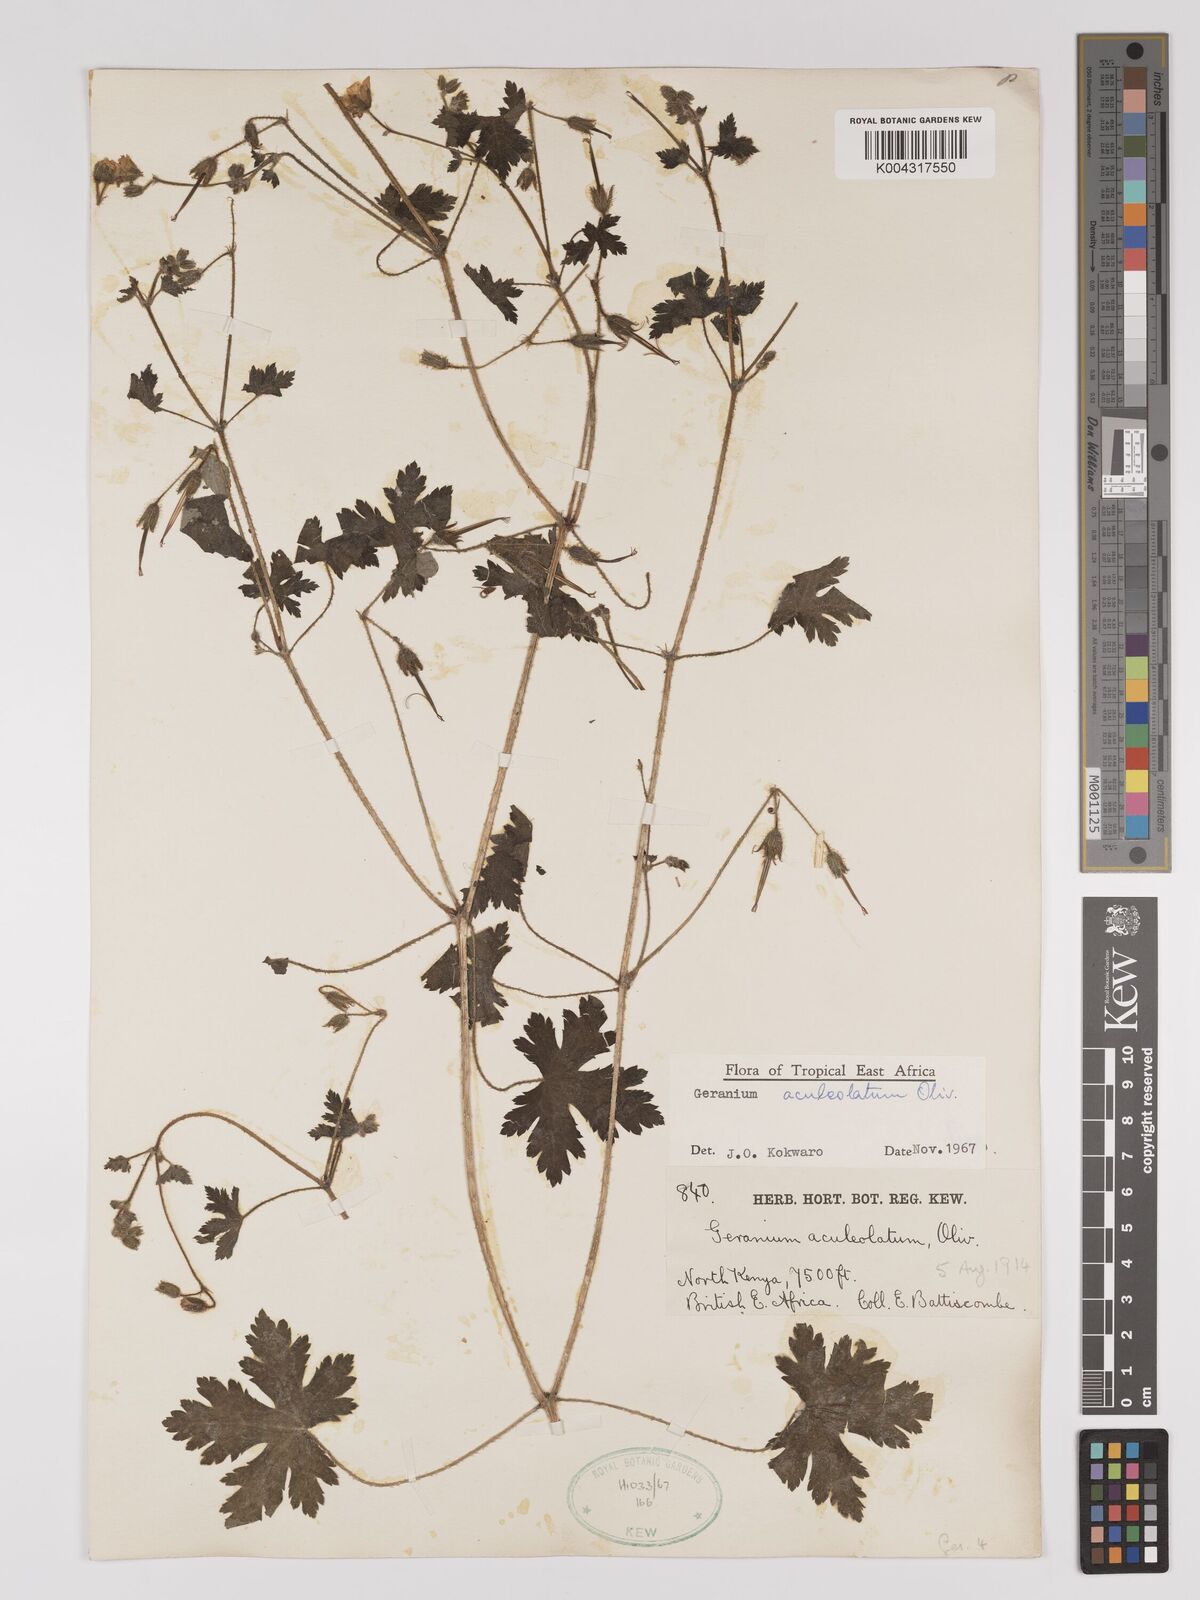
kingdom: Plantae
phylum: Tracheophyta
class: Magnoliopsida
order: Geraniales
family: Geraniaceae
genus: Geranium
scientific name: Geranium aculeolatum
